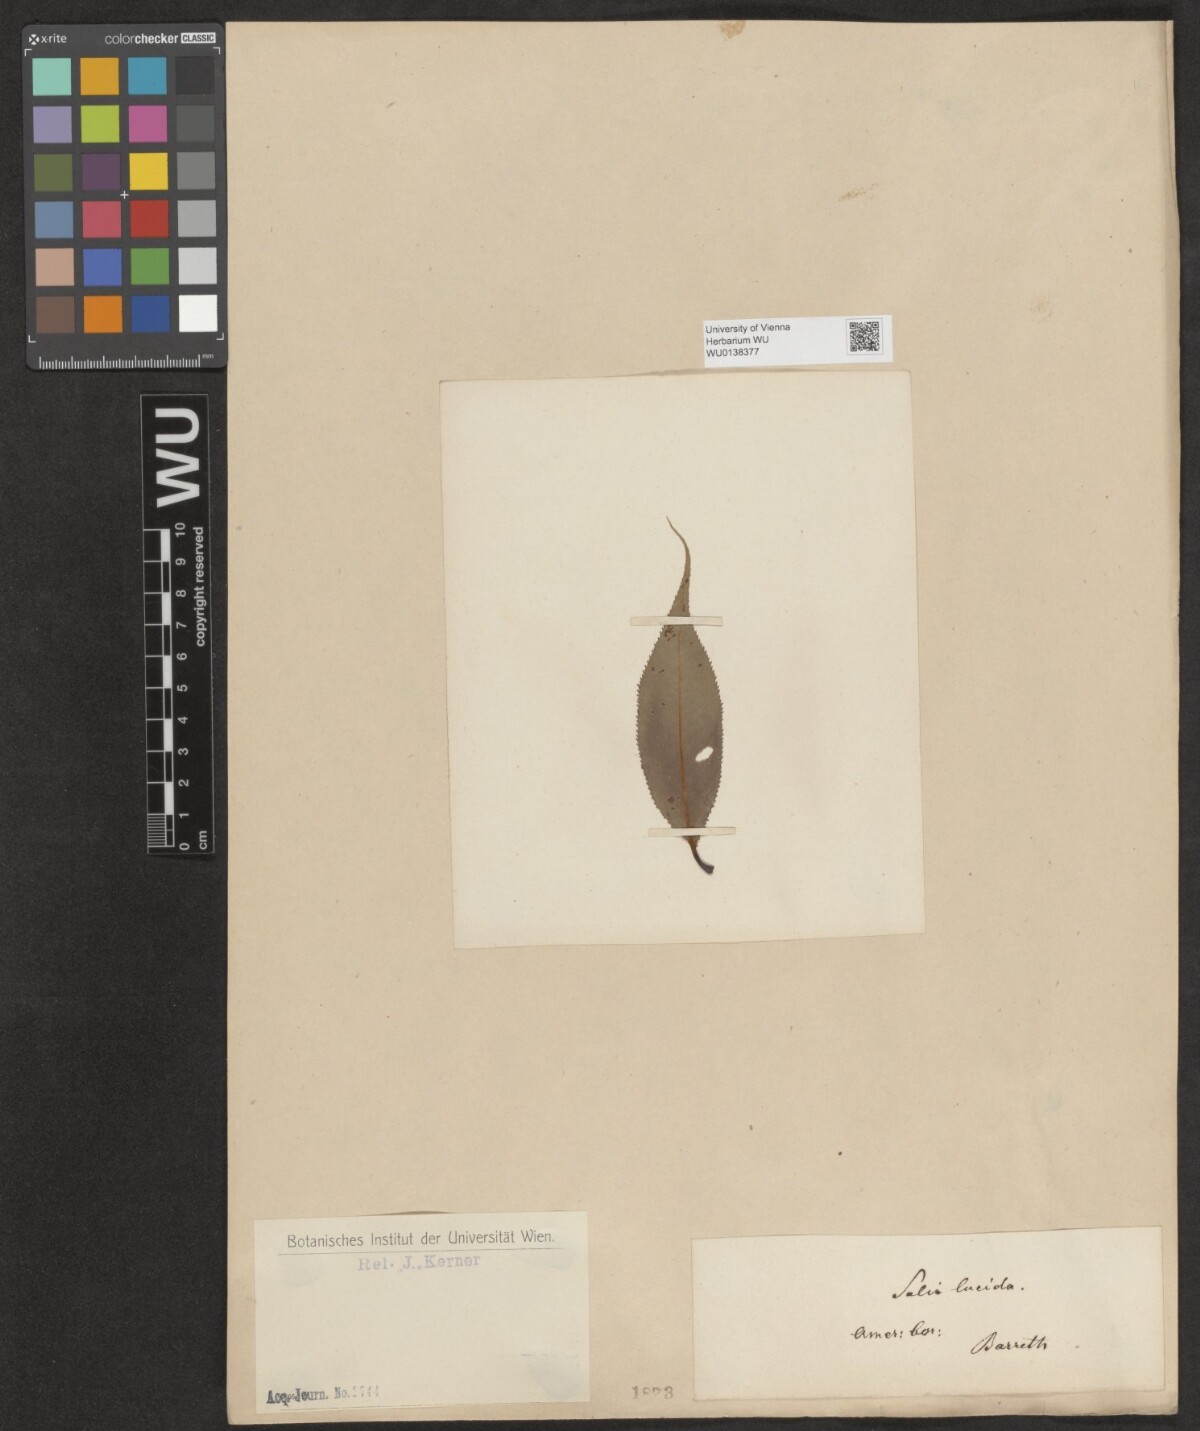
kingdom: Plantae
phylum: Tracheophyta
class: Magnoliopsida
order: Malpighiales
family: Salicaceae
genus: Salix
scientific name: Salix lucida
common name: Shining willow
